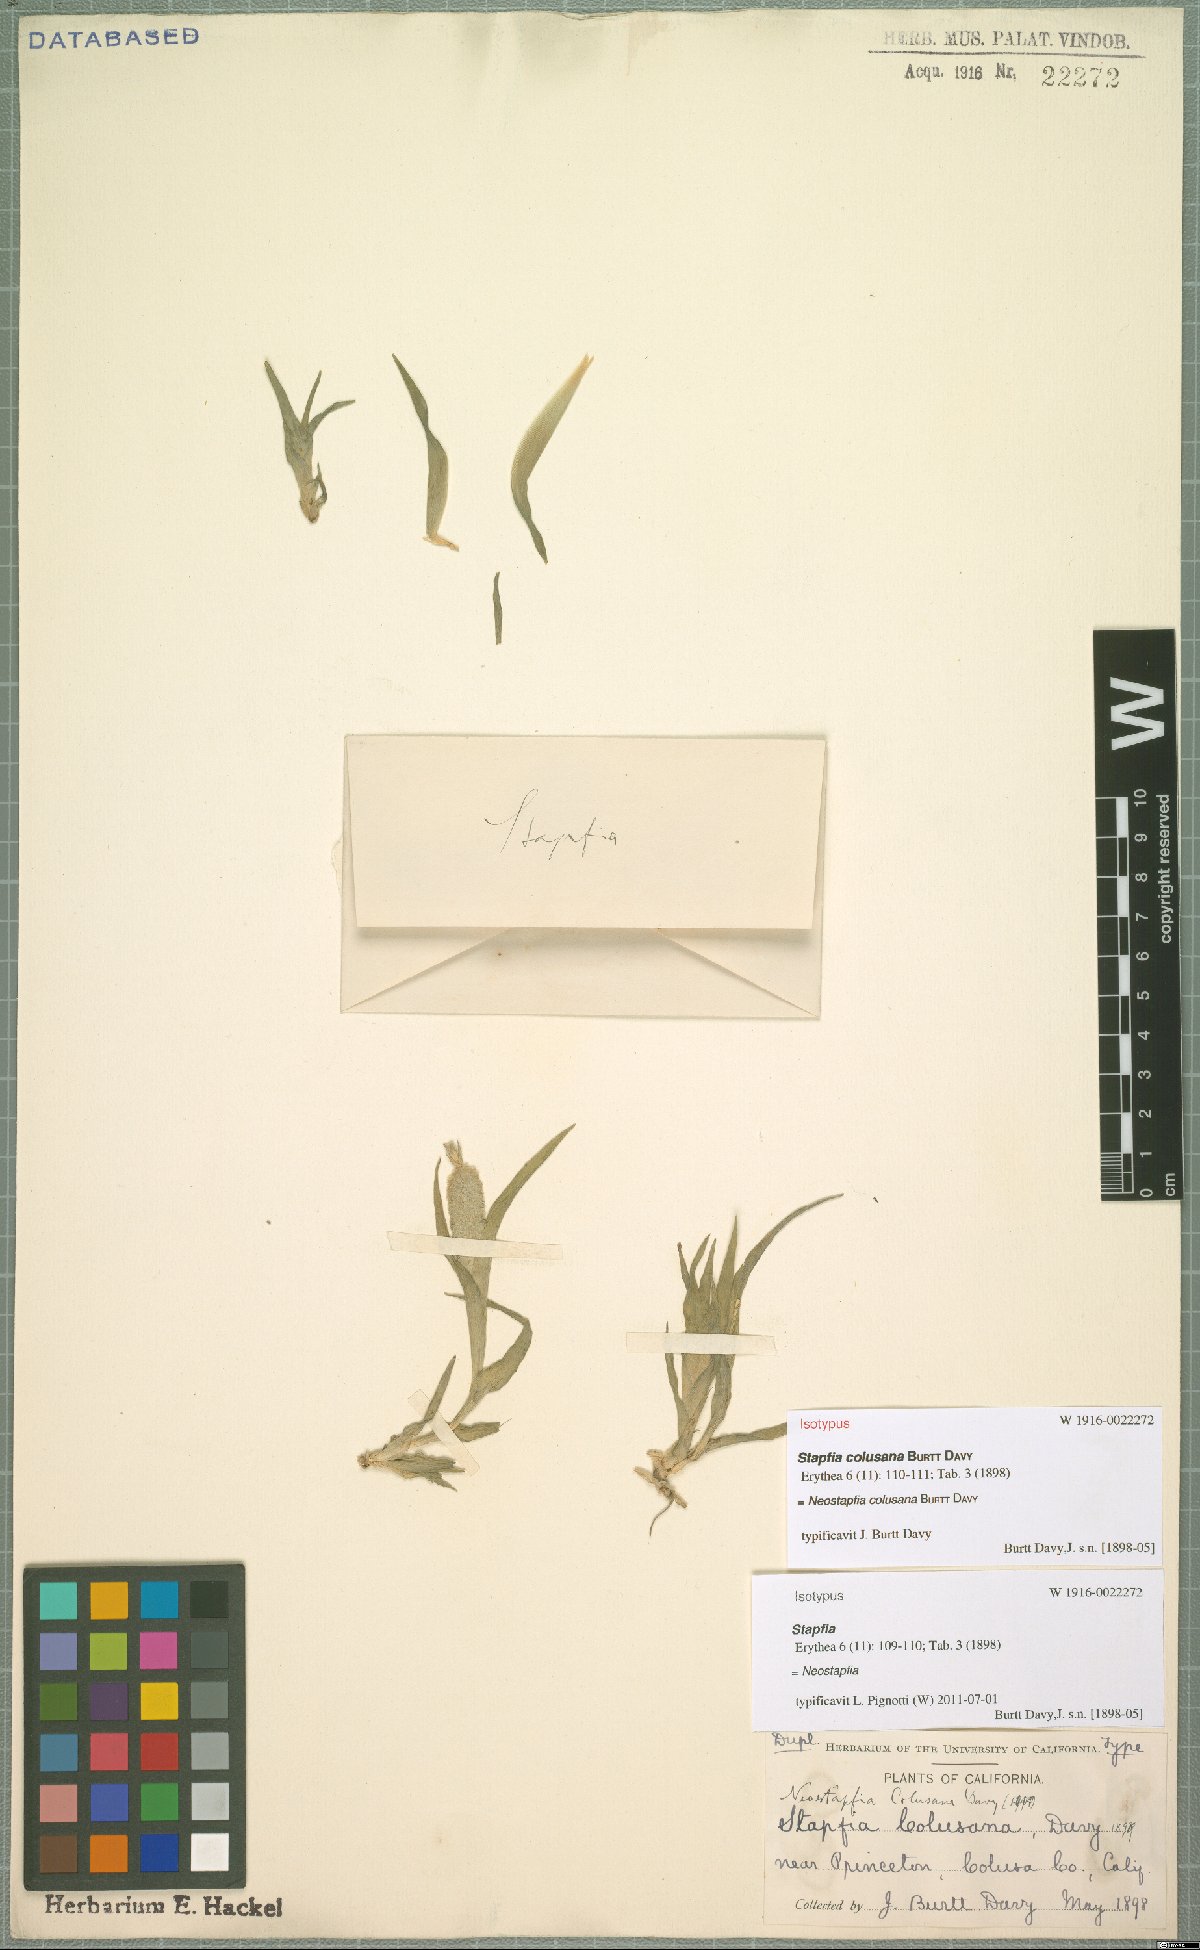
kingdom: Plantae
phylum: Tracheophyta
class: Liliopsida
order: Poales
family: Poaceae
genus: Neostapfia
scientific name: Neostapfia colusana
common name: Colusa grass
